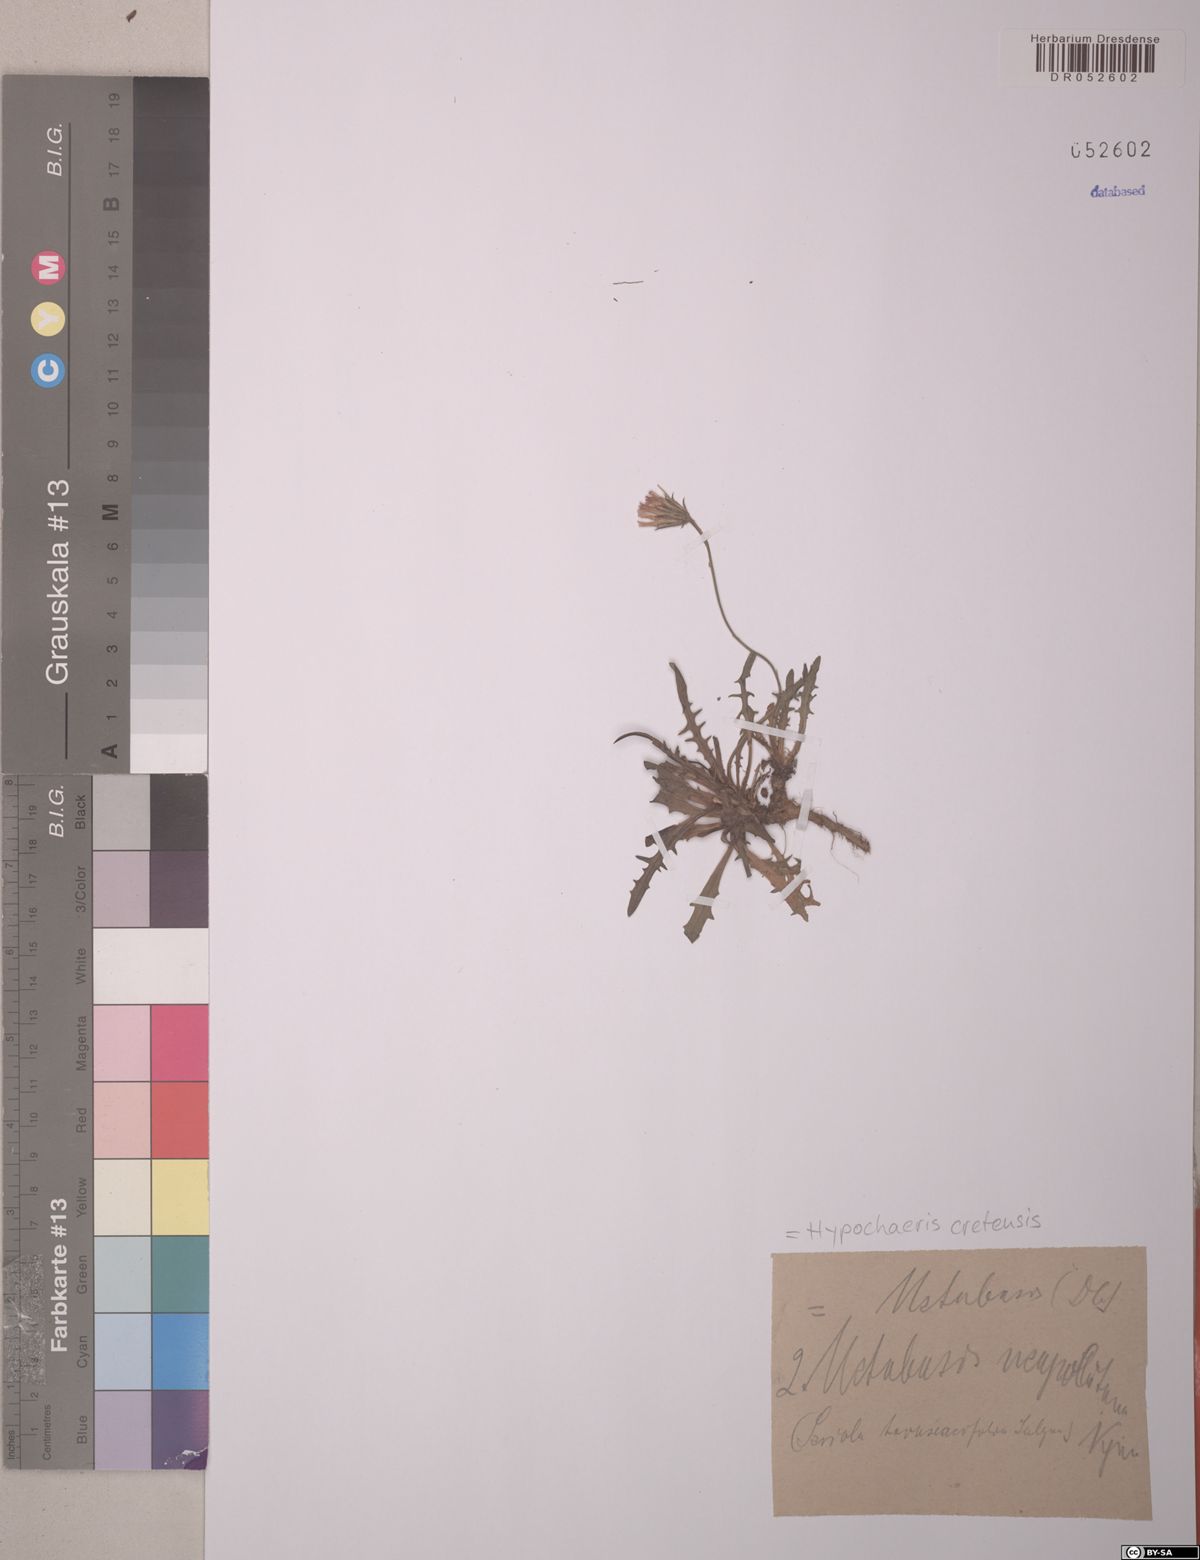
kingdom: Plantae
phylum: Tracheophyta
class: Magnoliopsida
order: Asterales
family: Asteraceae
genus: Hypochaeris
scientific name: Hypochaeris cretensis
